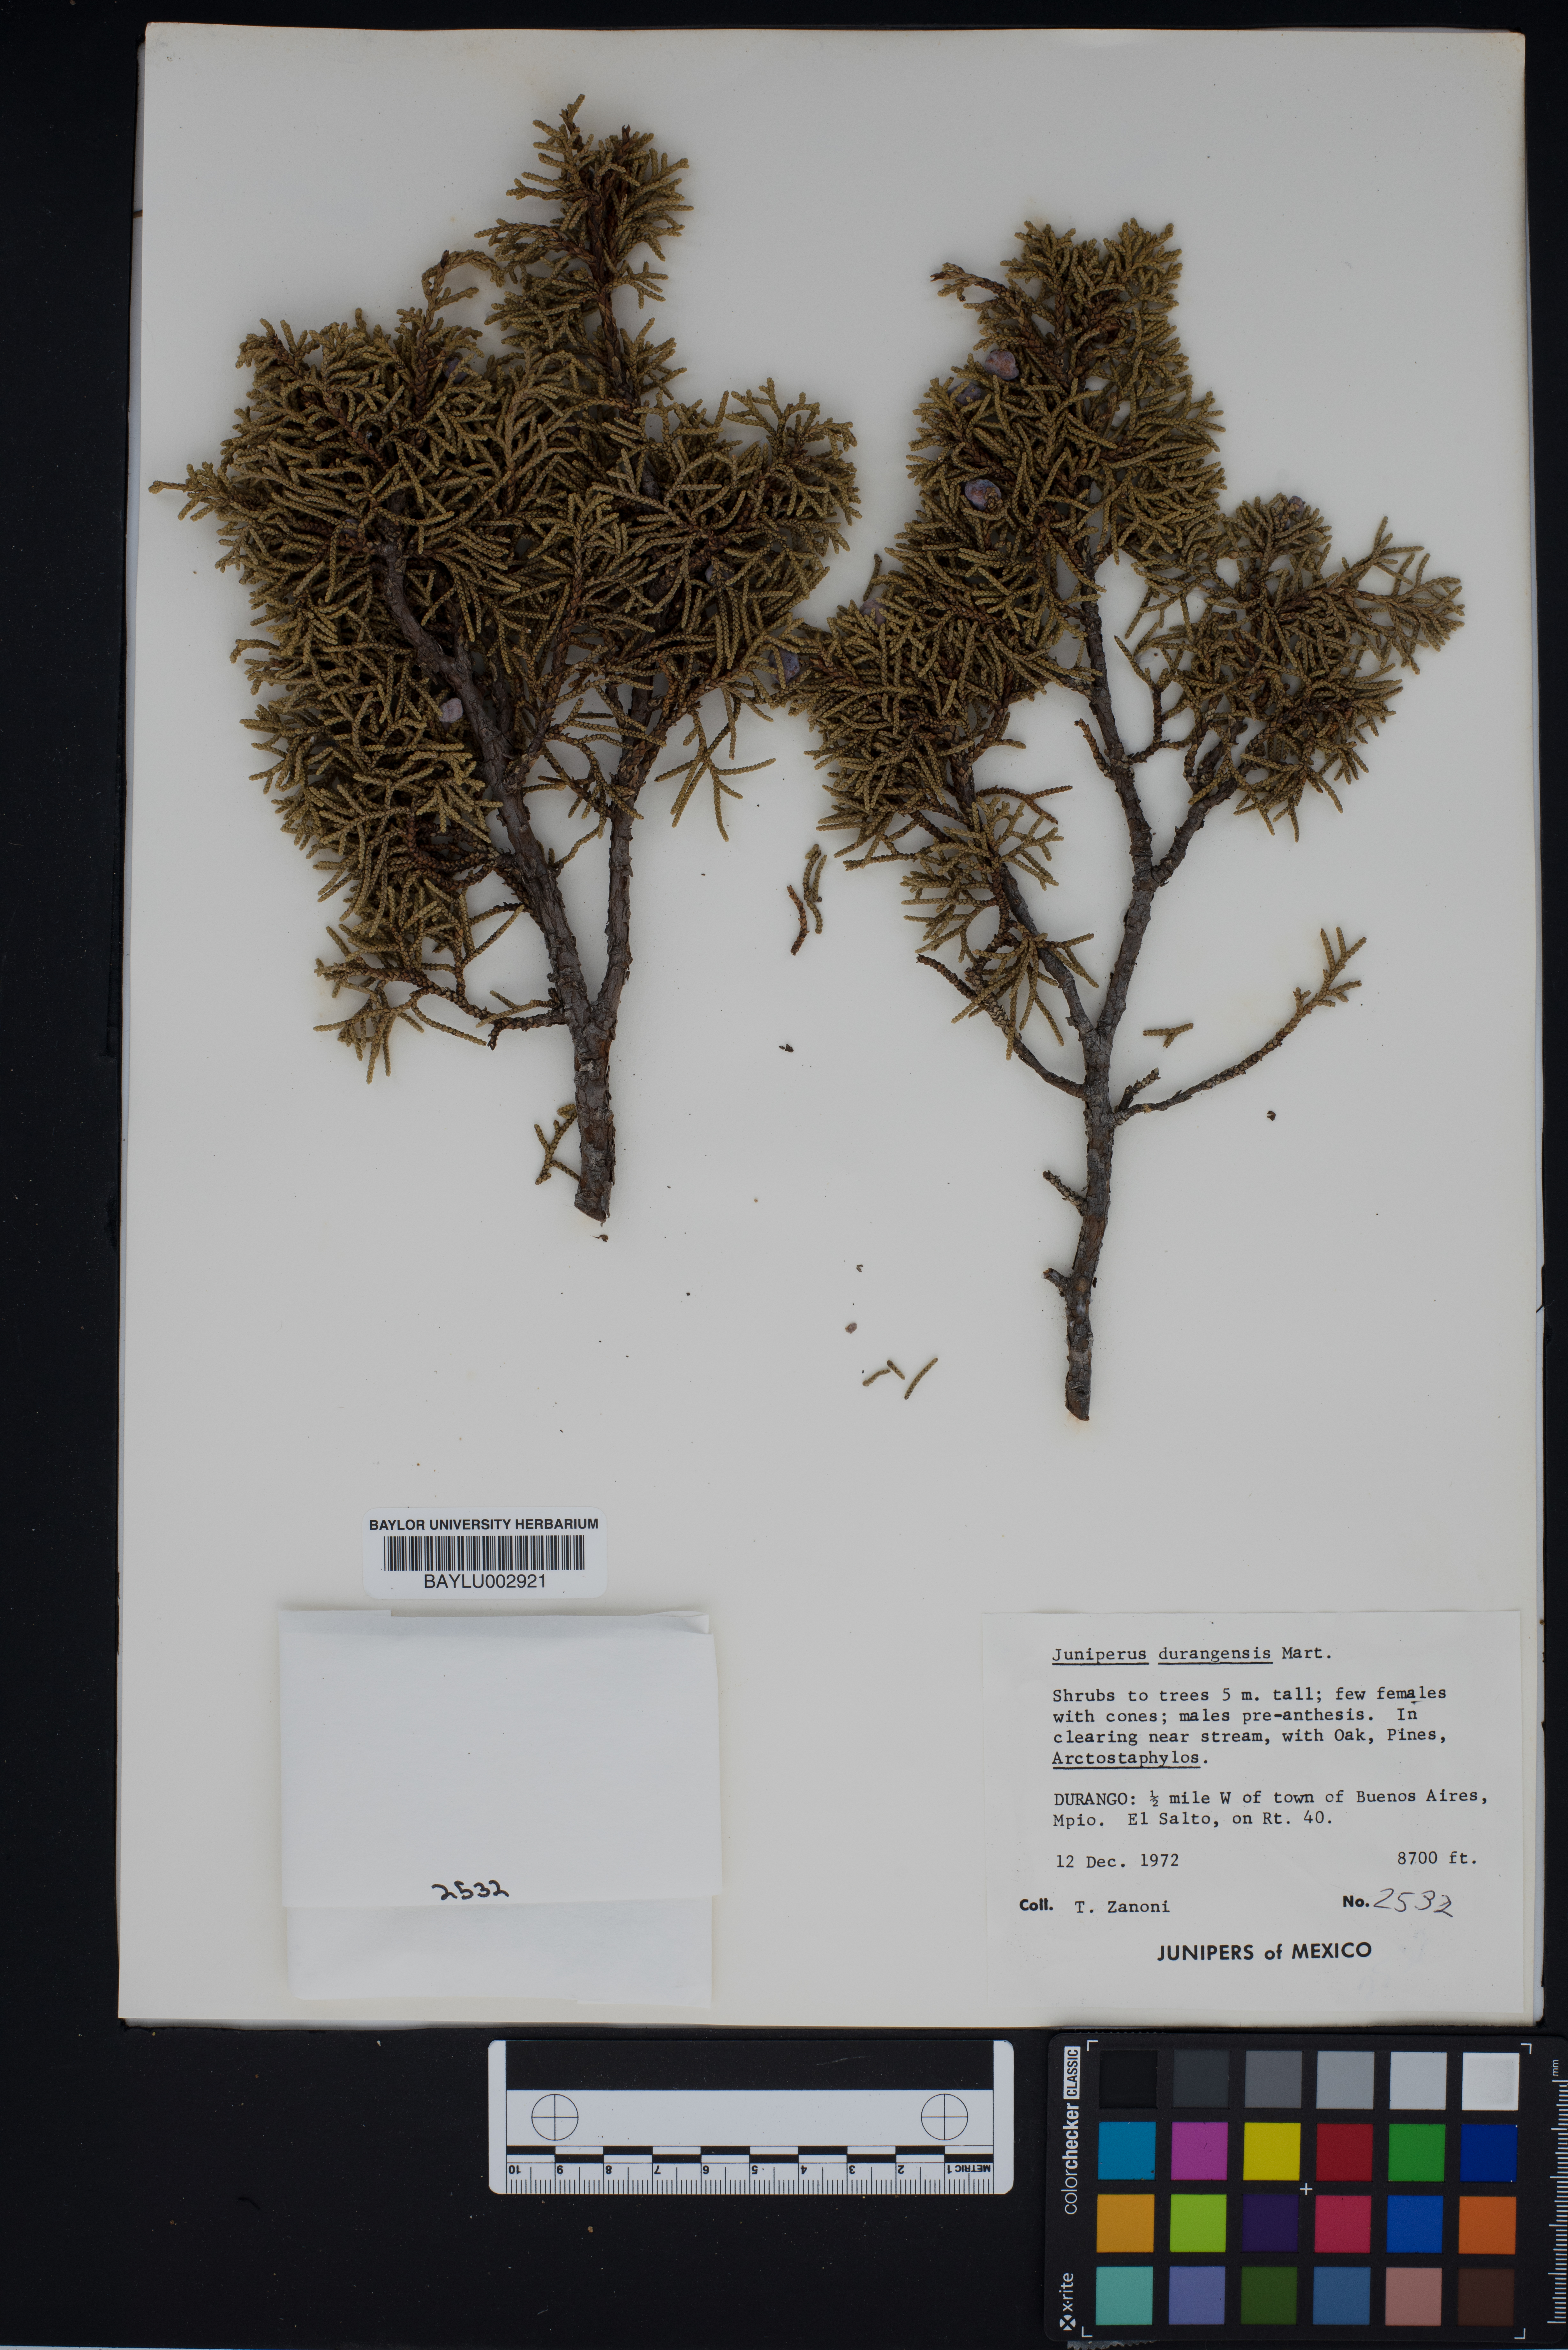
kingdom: Plantae
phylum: Tracheophyta
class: Pinopsida
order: Pinales
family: Cupressaceae
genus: Juniperus
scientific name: Juniperus durangensis
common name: Durango juniper
